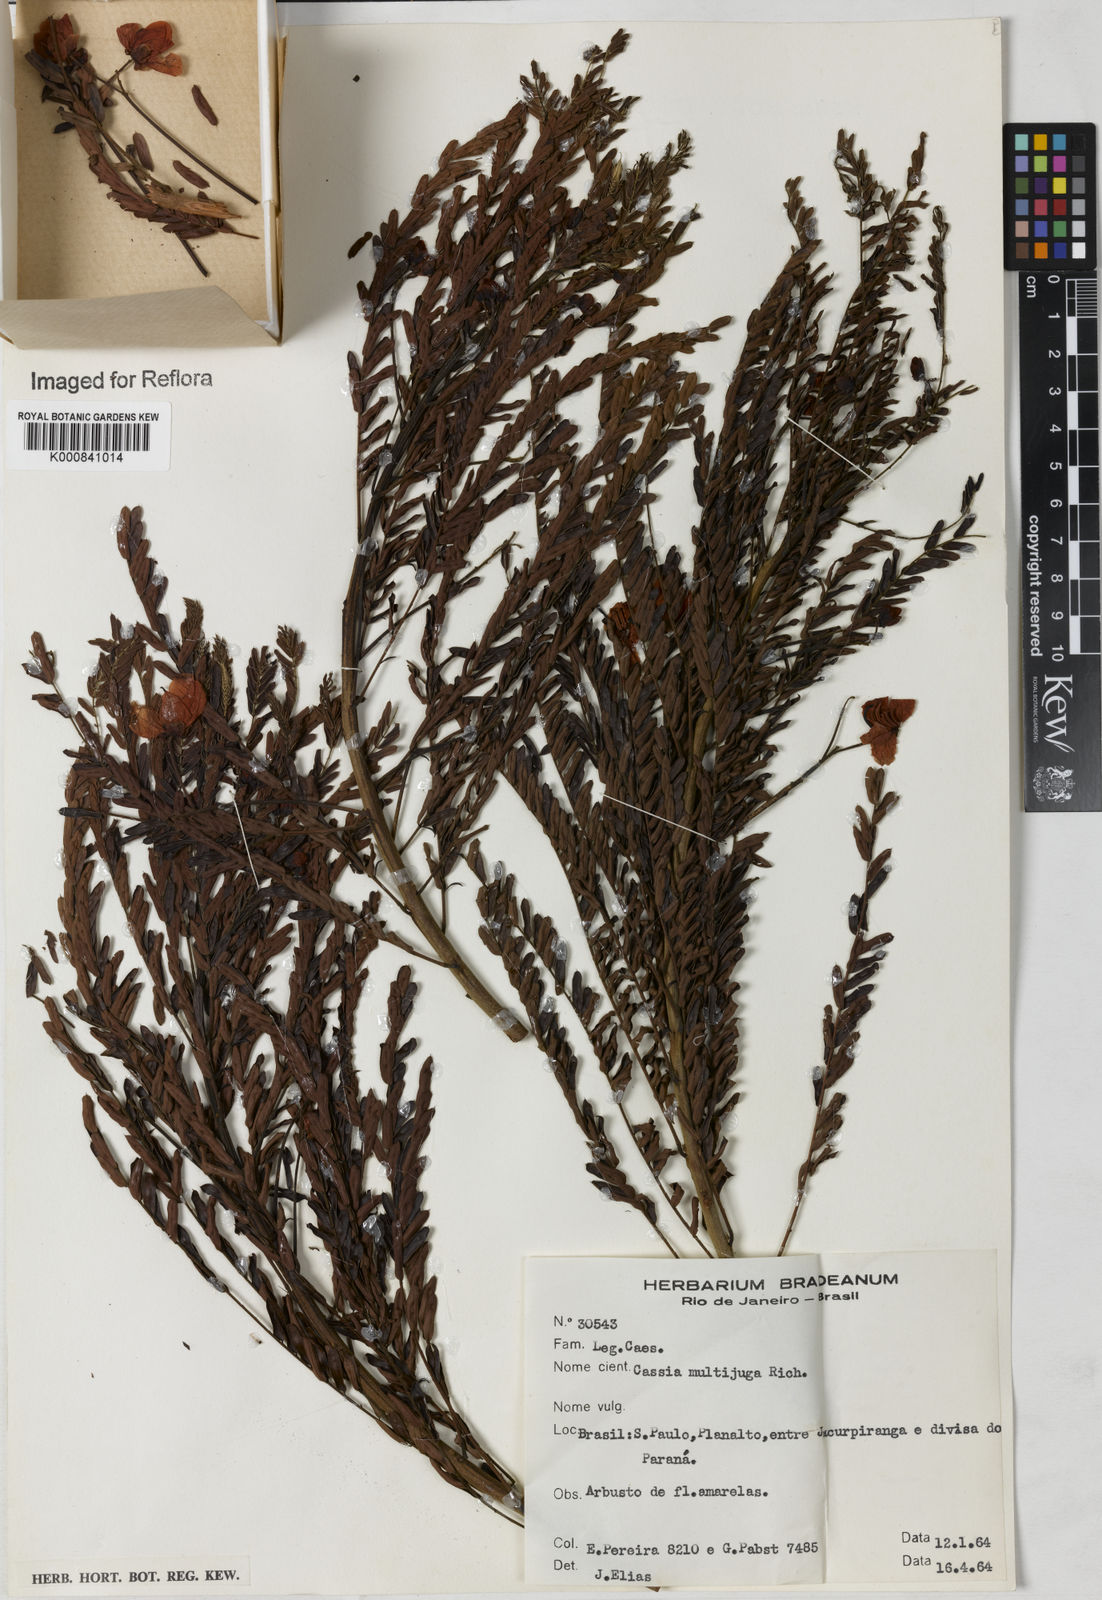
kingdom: Plantae
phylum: Tracheophyta
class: Magnoliopsida
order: Fabales
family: Fabaceae
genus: Senna
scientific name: Senna multijuga
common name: False sicklepod
